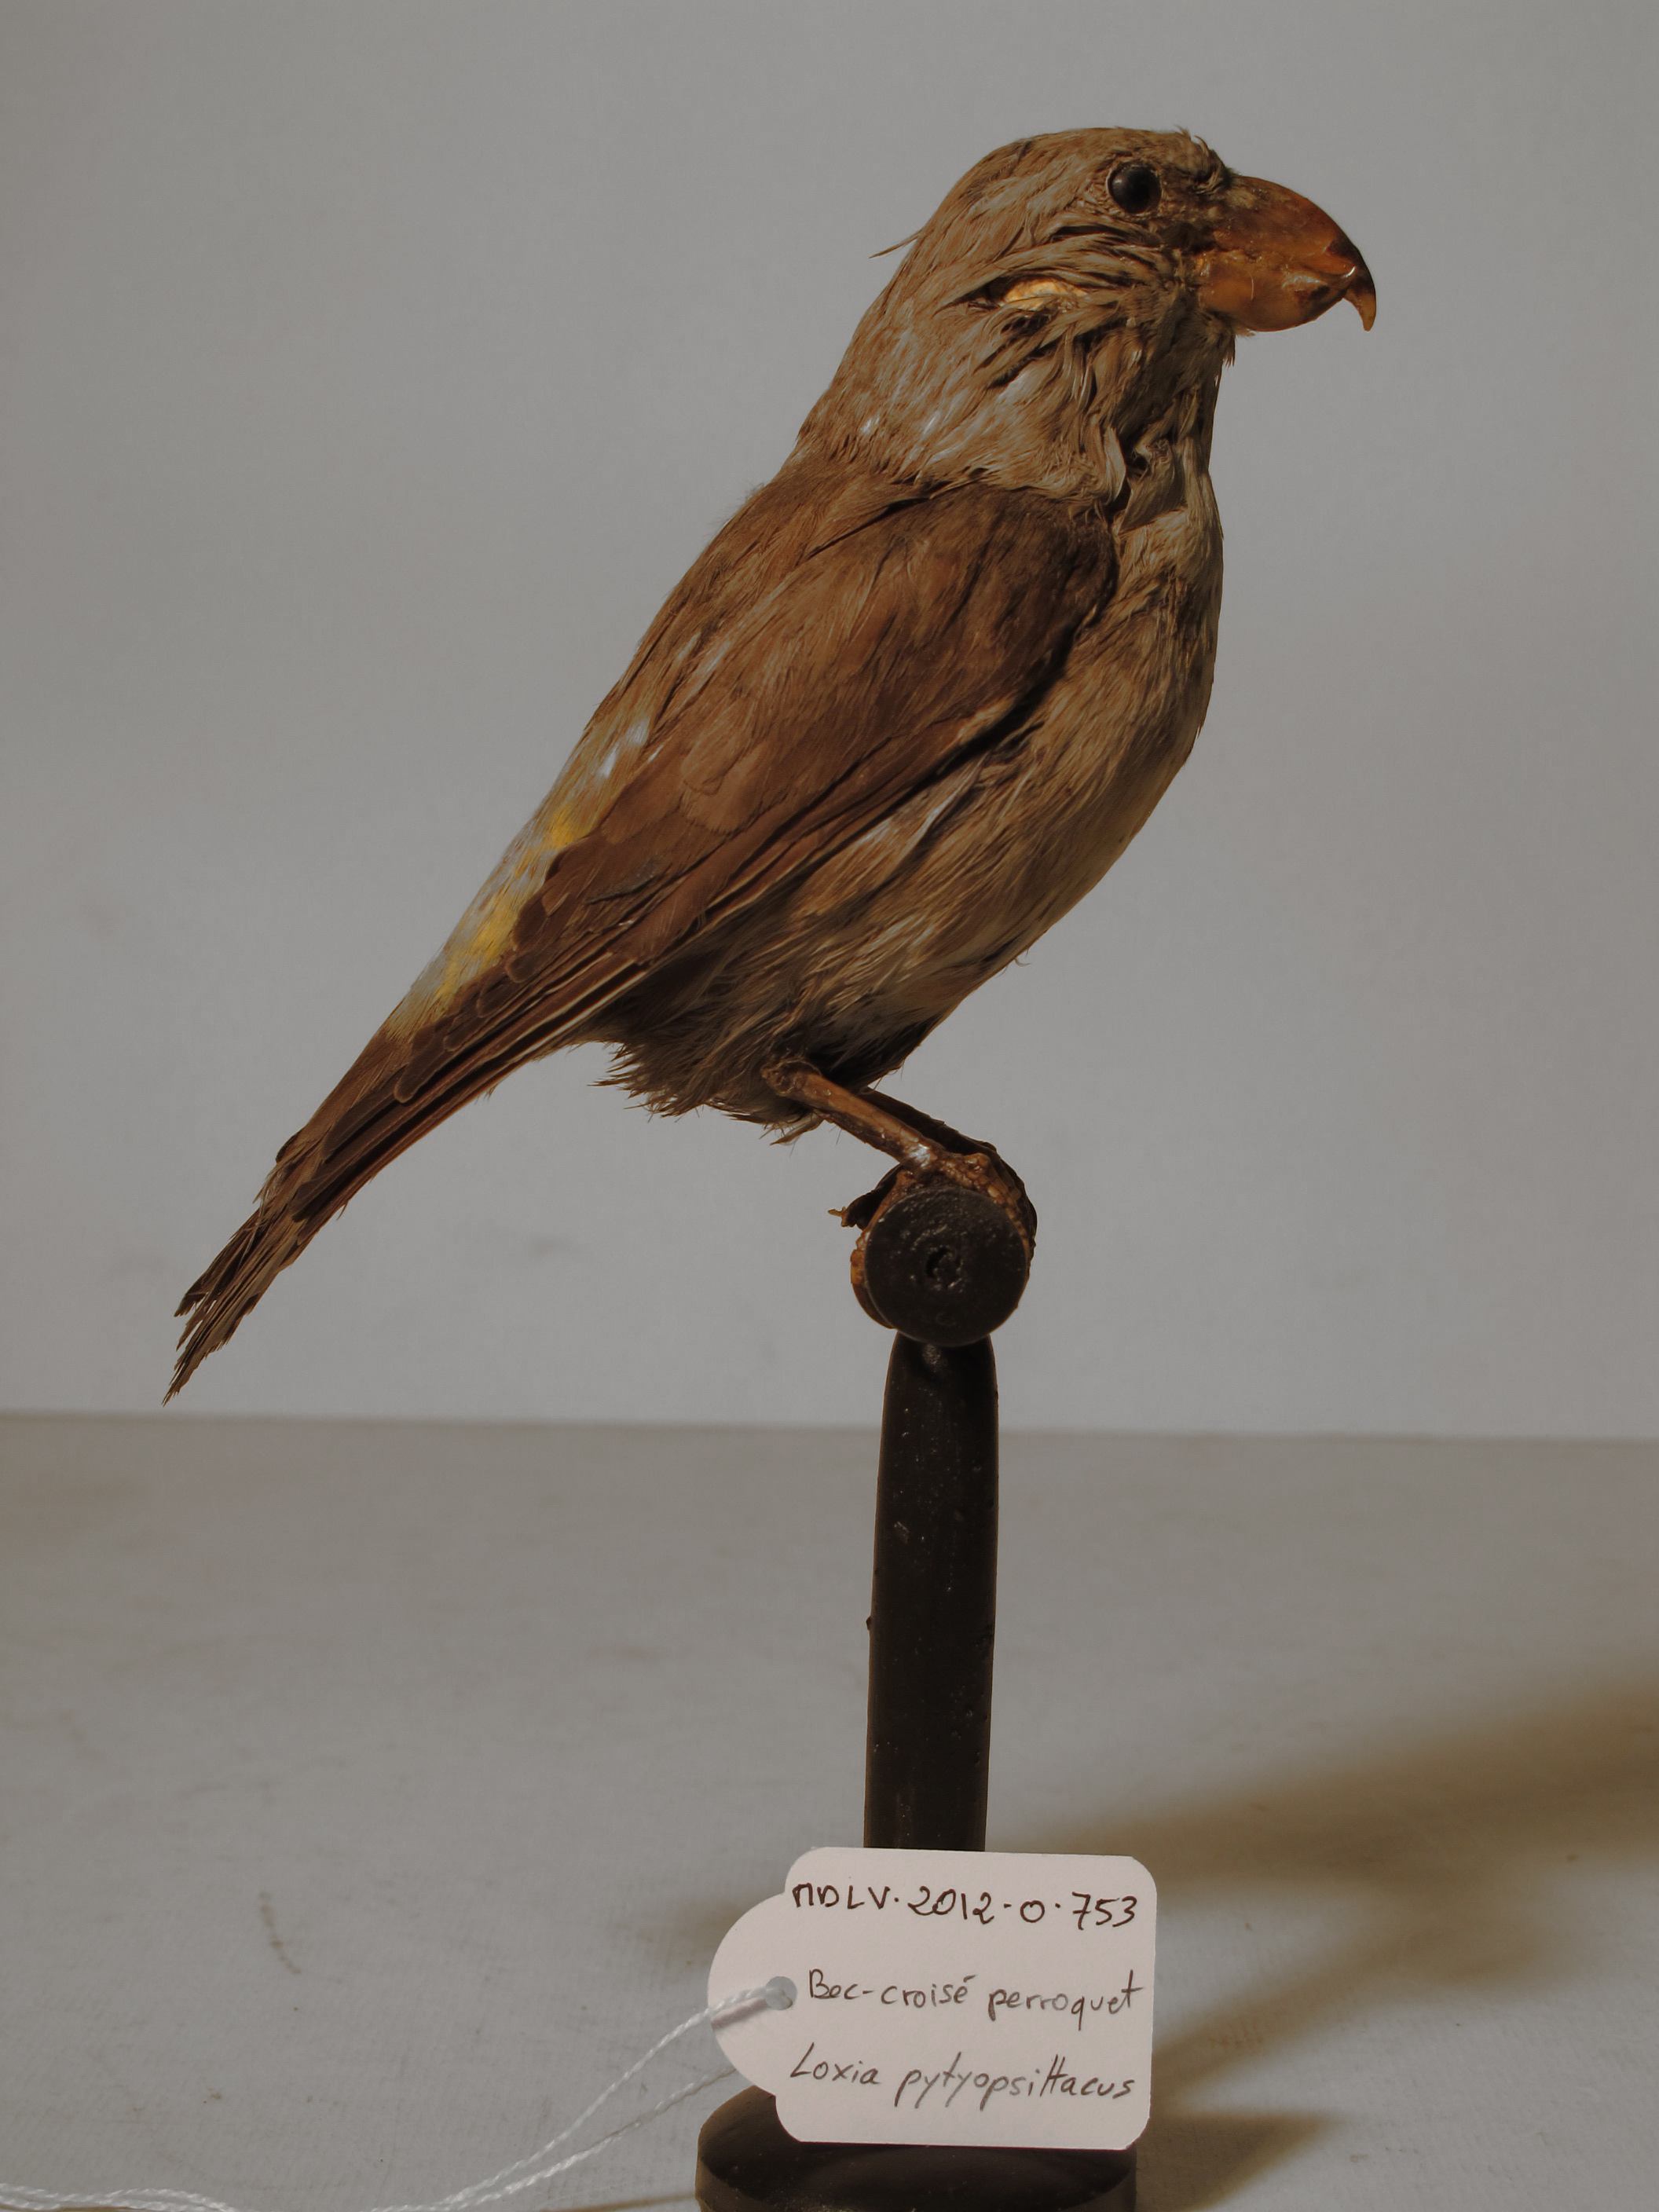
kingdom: Animalia
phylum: Chordata
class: Aves
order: Passeriformes
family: Fringillidae
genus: Loxia
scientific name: Loxia pytyopsittacus
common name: Parrot Crossbill
